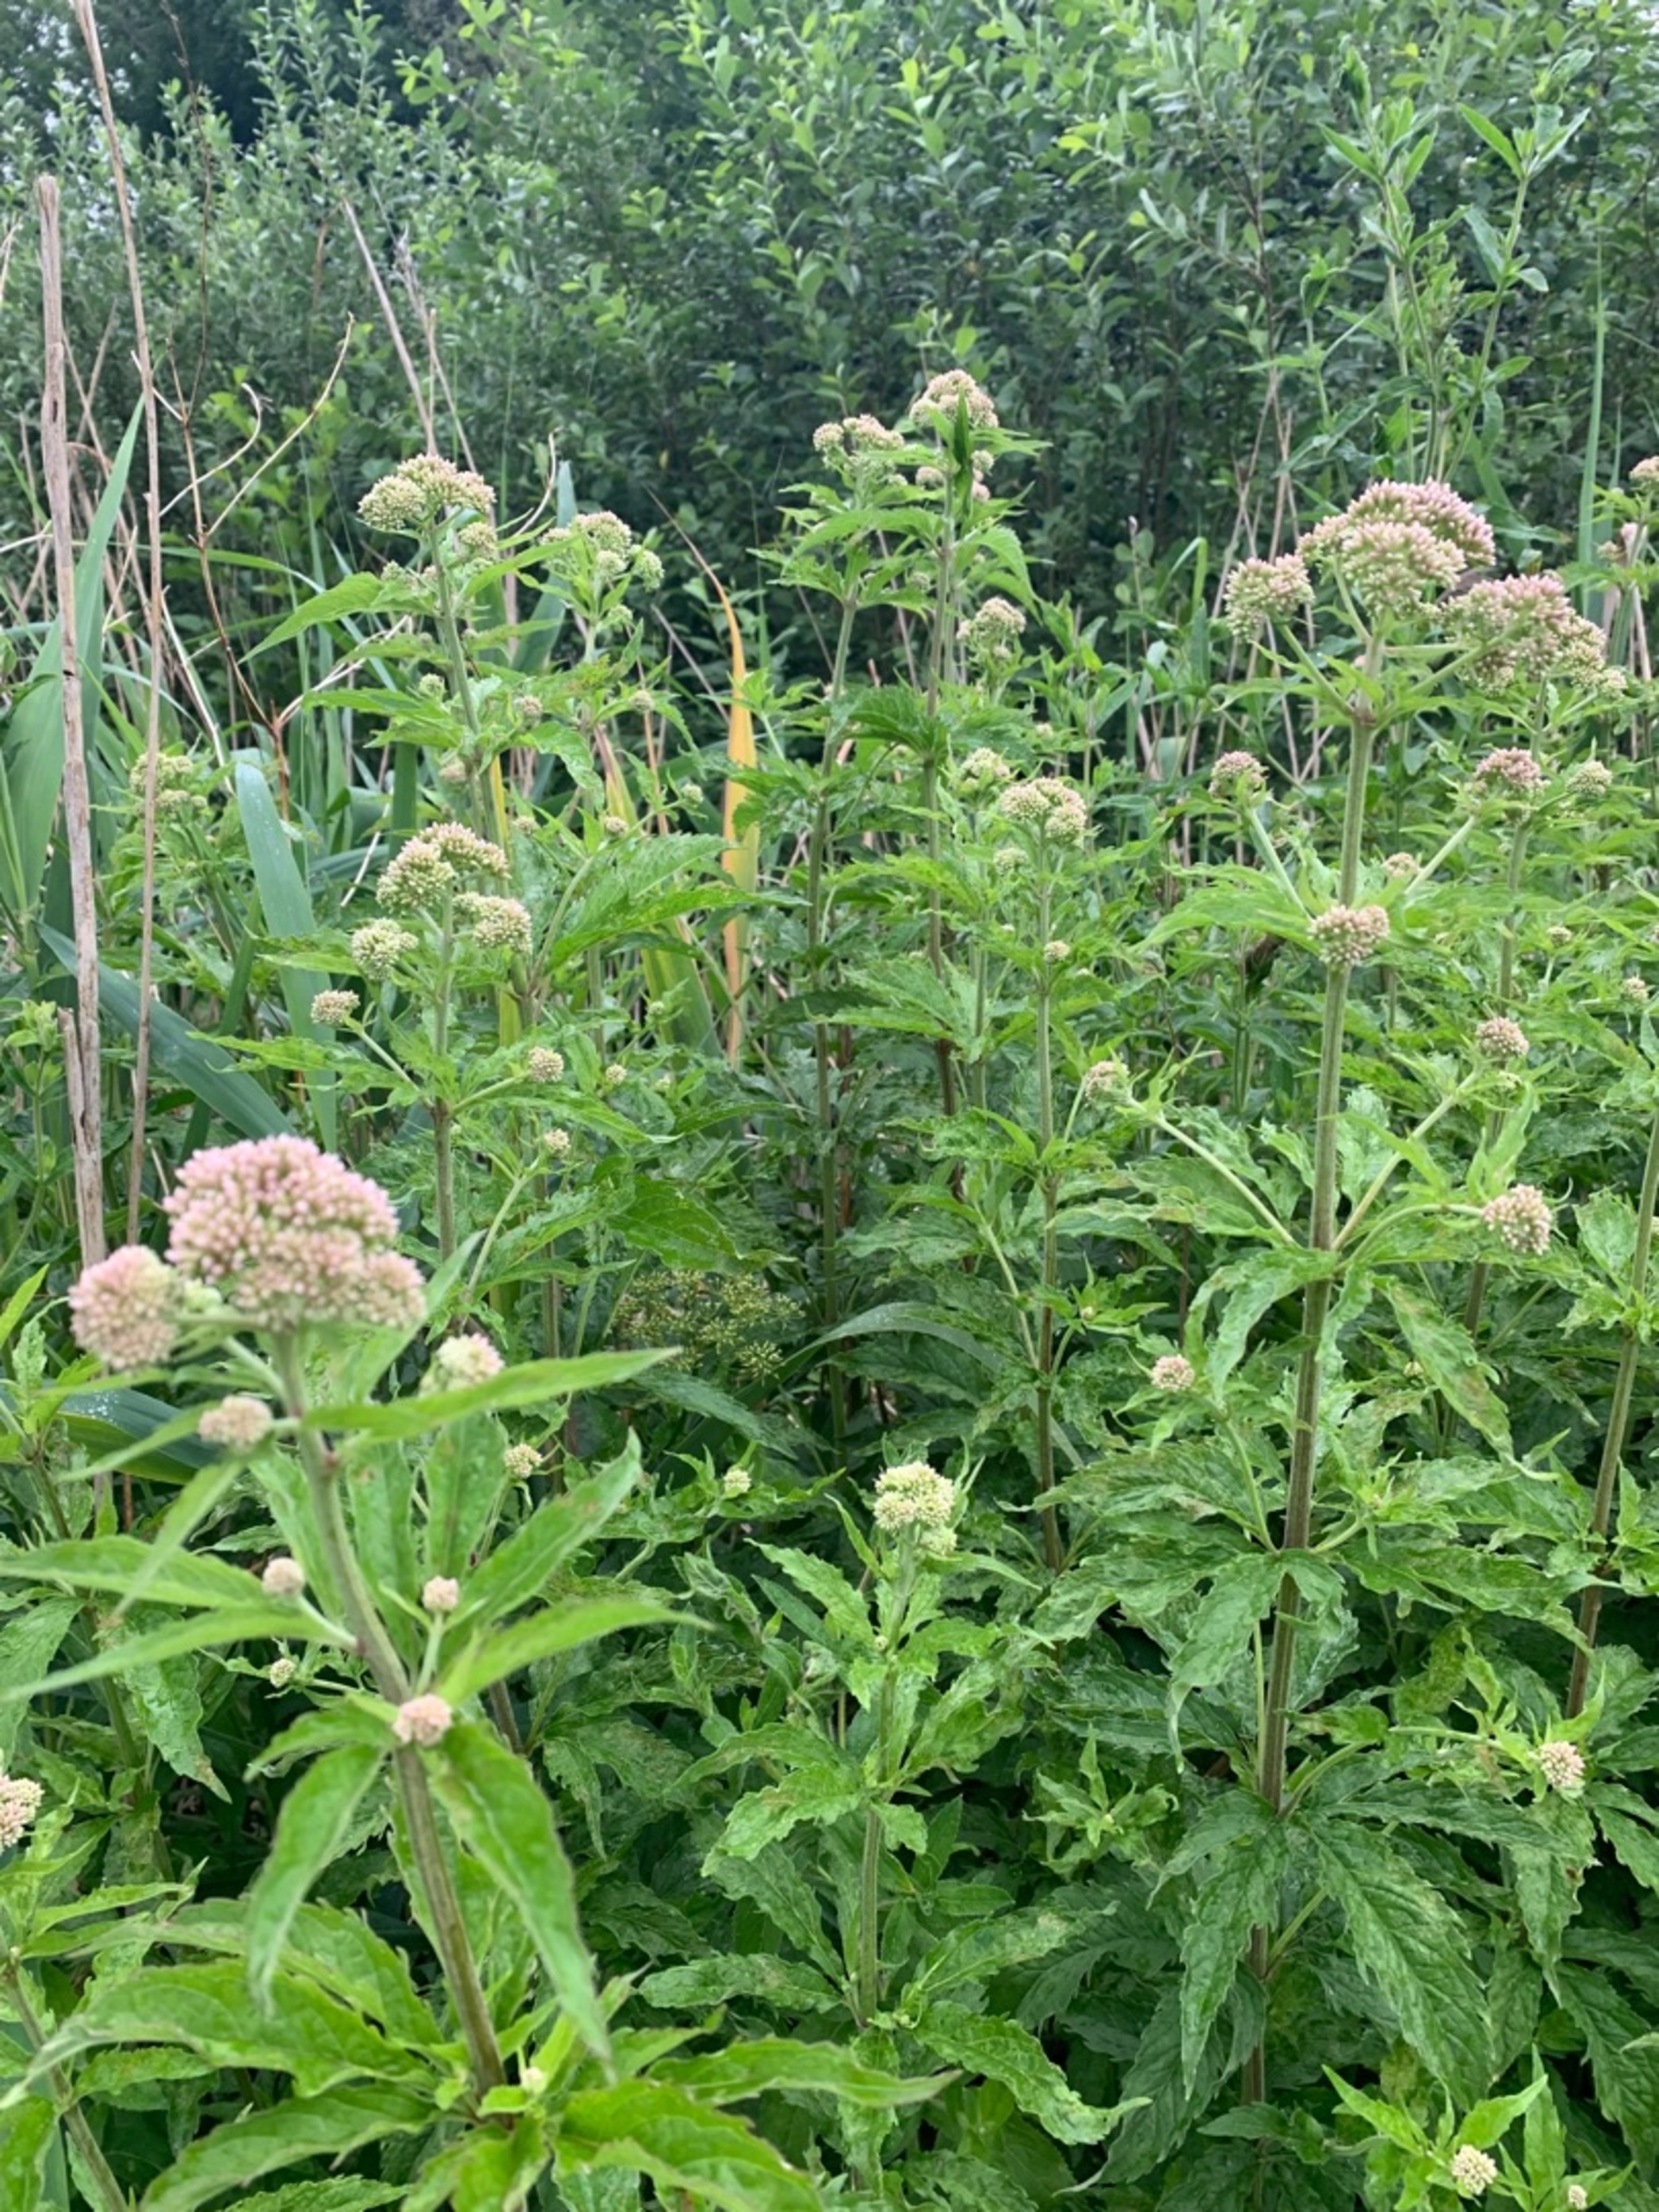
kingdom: Plantae
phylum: Tracheophyta
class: Magnoliopsida
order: Asterales
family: Asteraceae
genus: Eupatorium
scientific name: Eupatorium cannabinum
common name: Hjortetrøst
